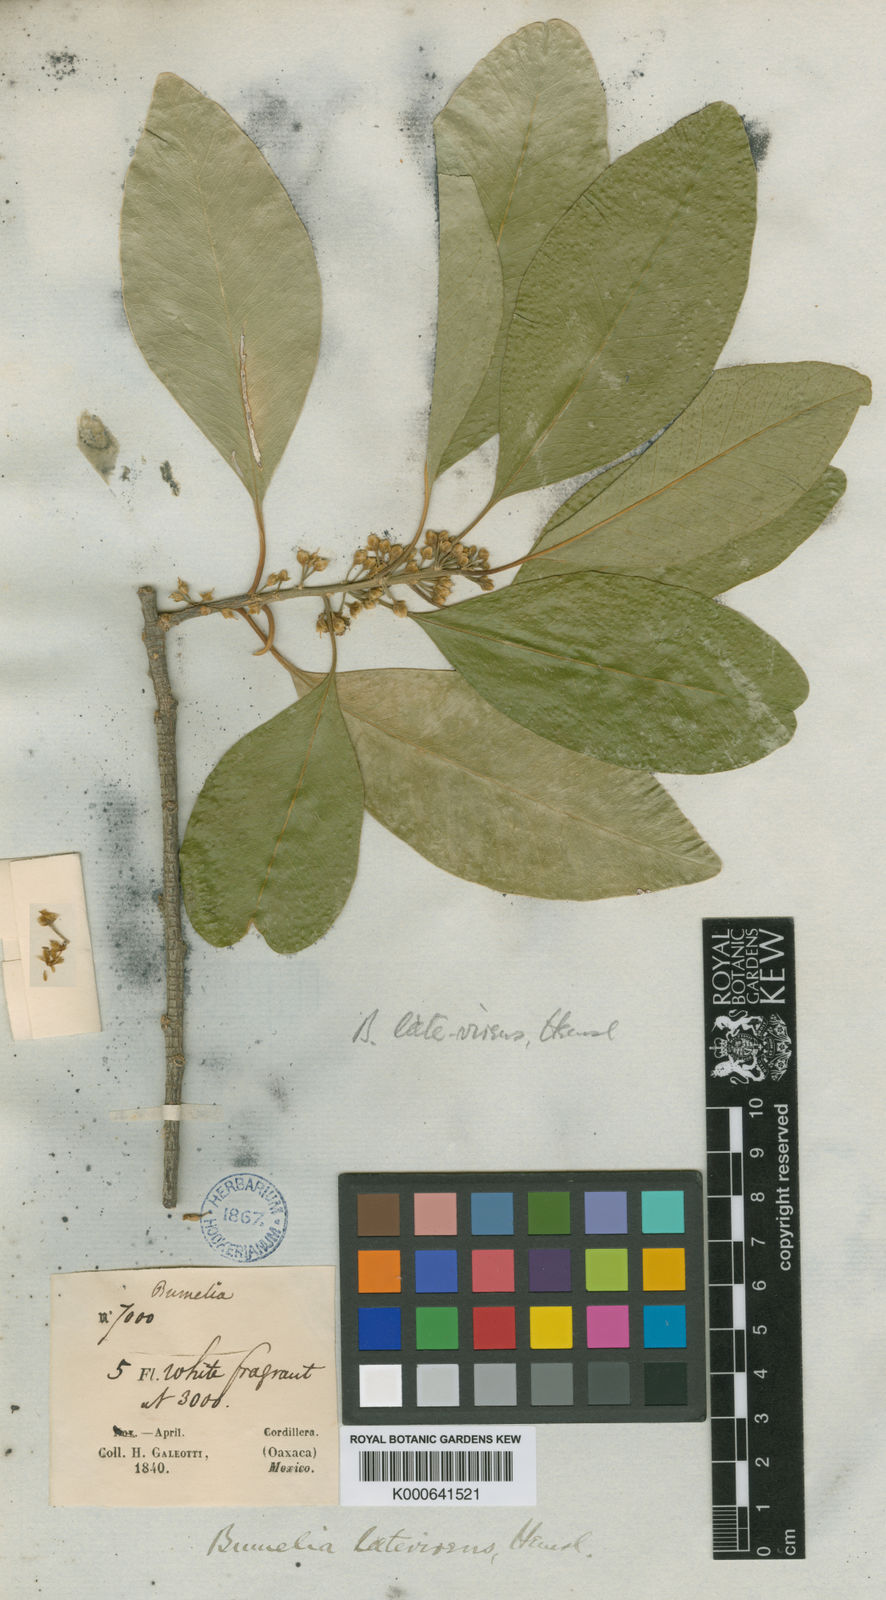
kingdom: Plantae
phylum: Tracheophyta
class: Magnoliopsida
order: Ericales
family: Sapotaceae
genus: Sideroxylon
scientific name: Sideroxylon palmeri
